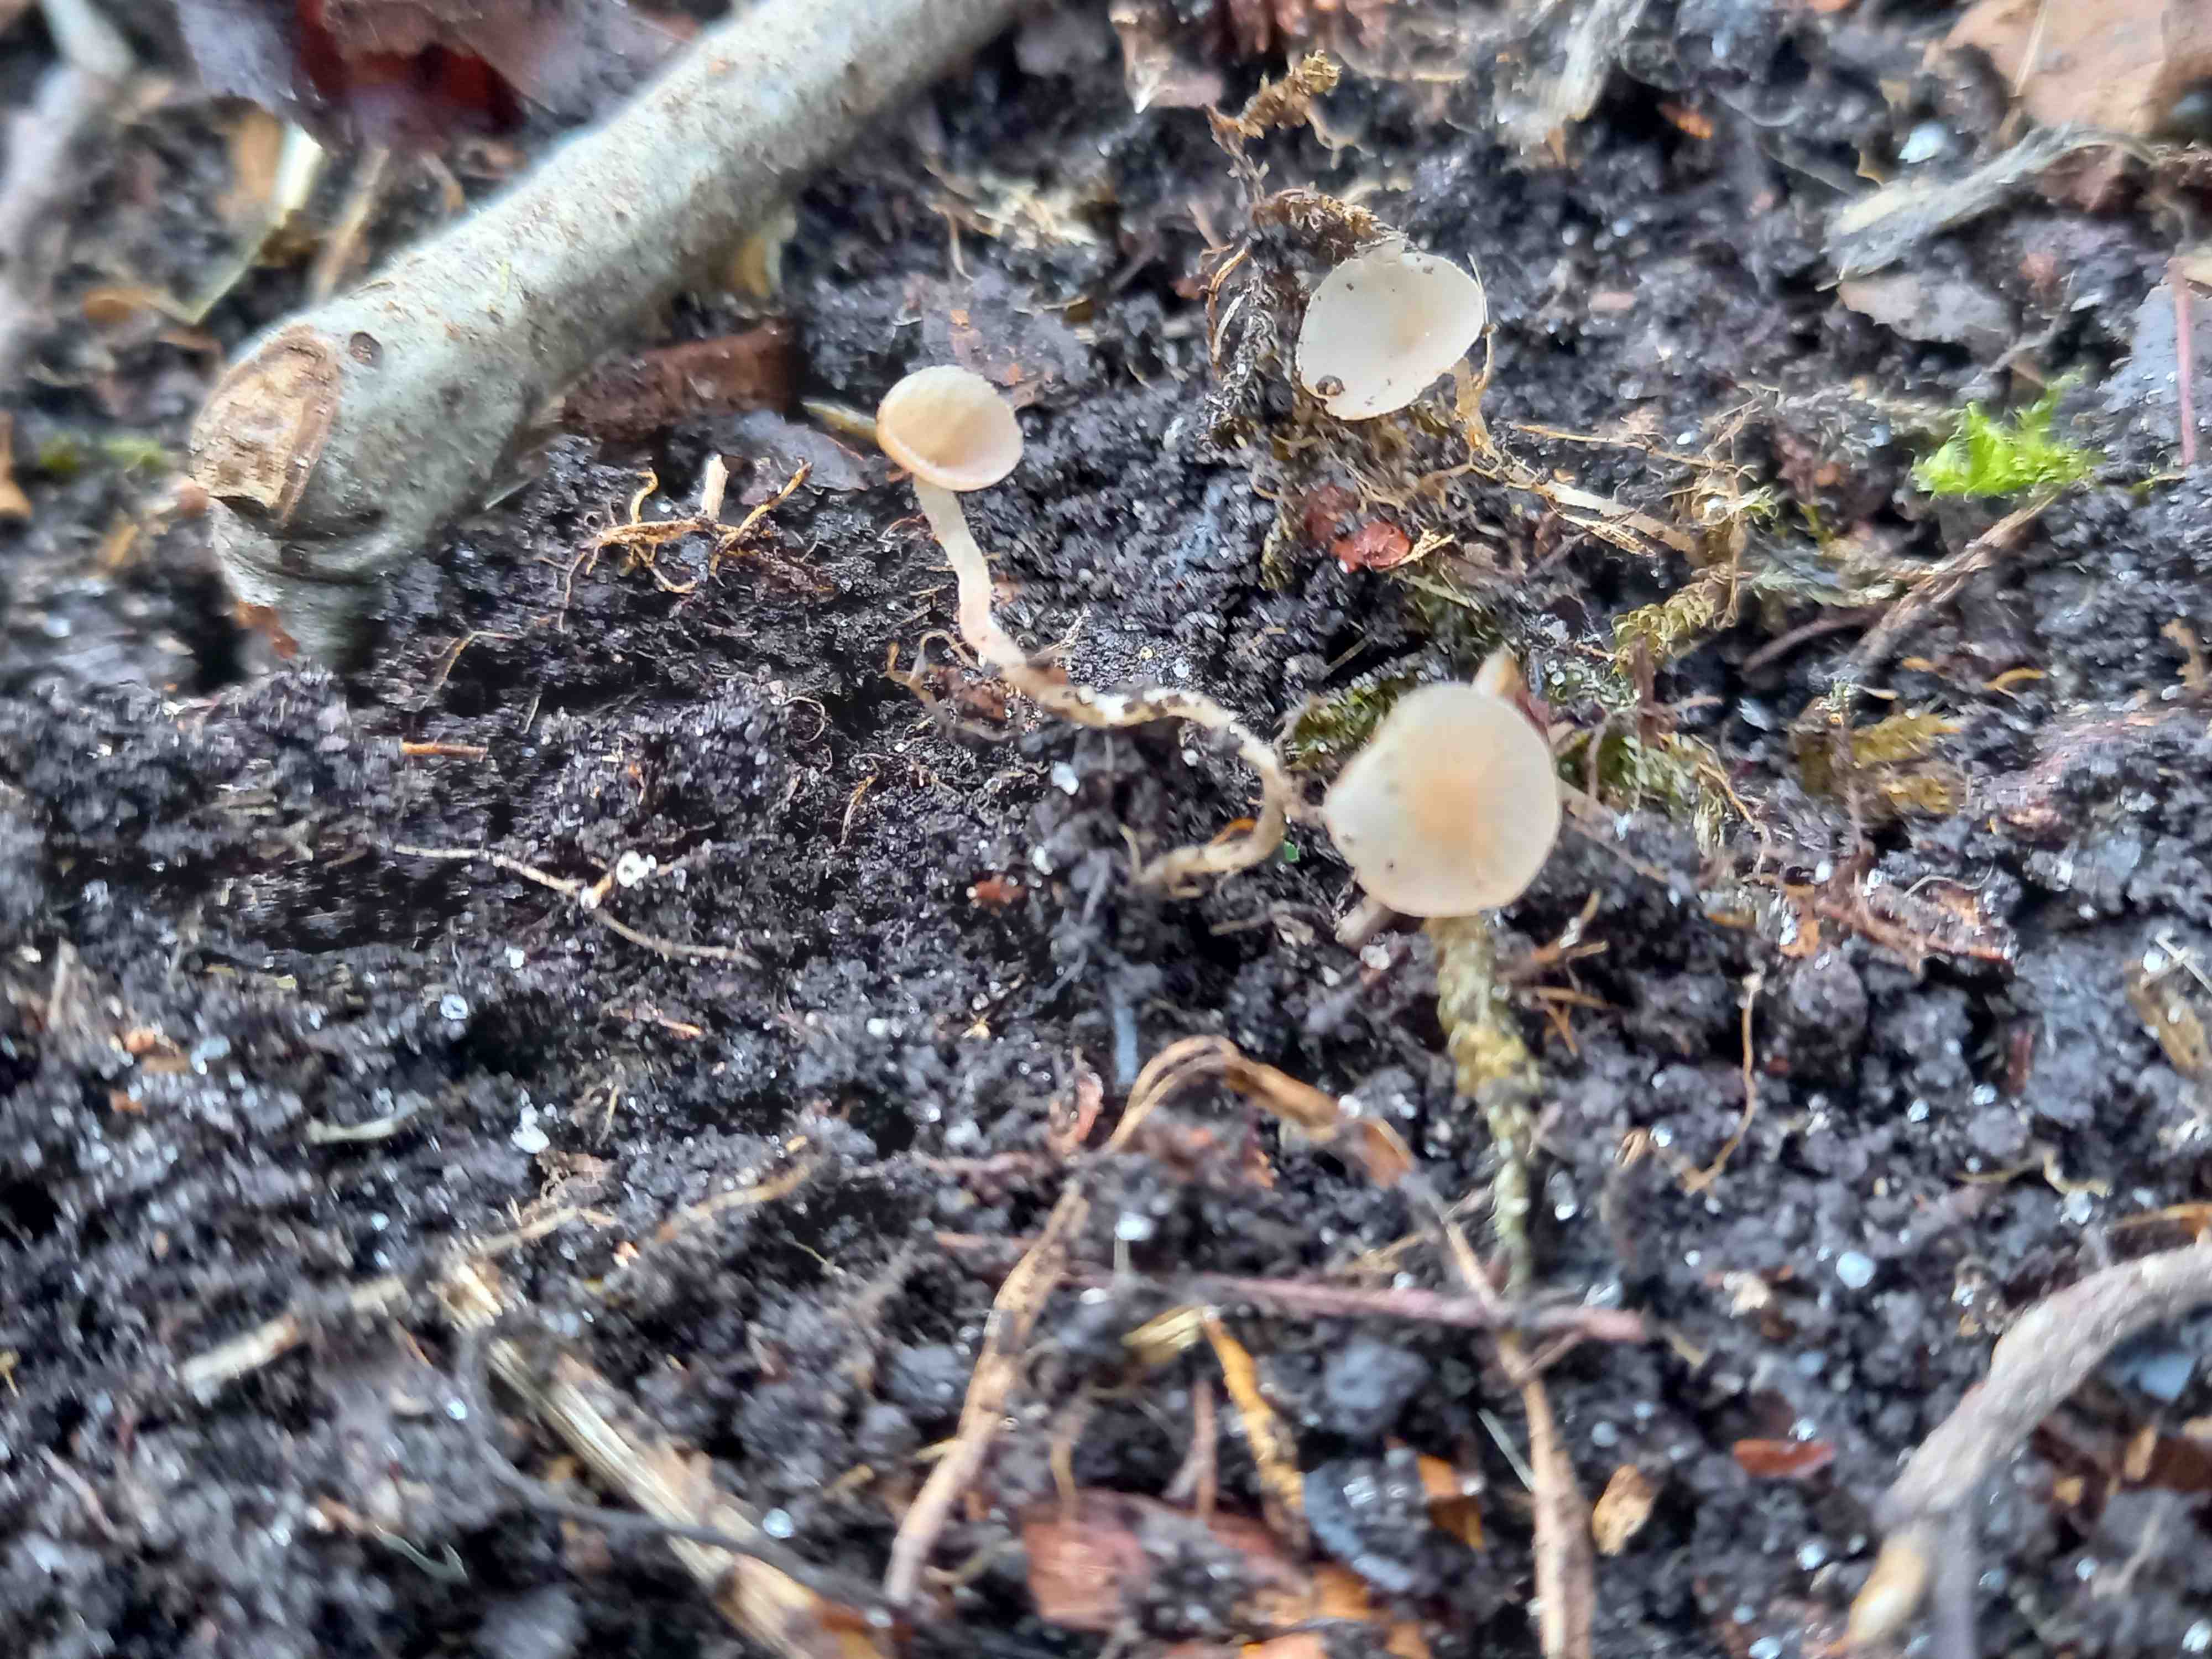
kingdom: Fungi
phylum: Ascomycota
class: Leotiomycetes
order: Helotiales
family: Sclerotiniaceae
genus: Ciboria
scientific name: Ciboria amentacea
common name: ellerakle-knoldskive
